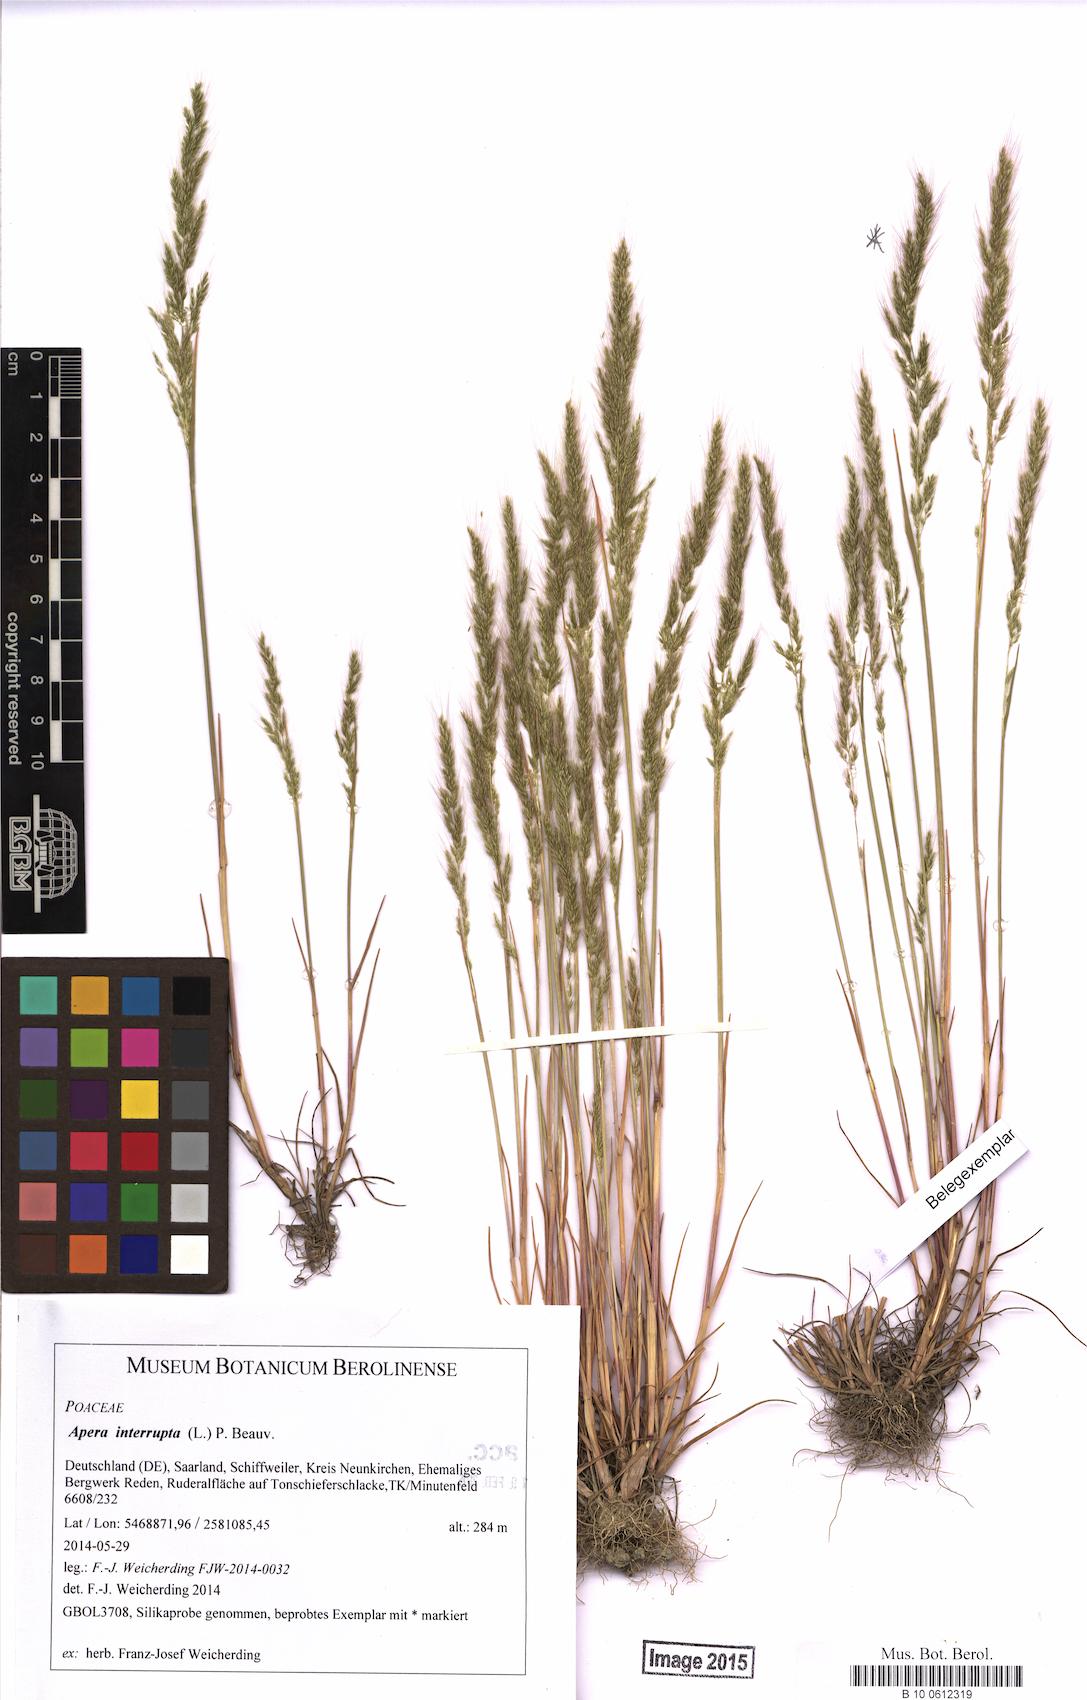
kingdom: Plantae
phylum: Tracheophyta
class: Liliopsida
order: Poales
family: Poaceae
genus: Apera
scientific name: Apera interrupta
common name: Dense silky-bent
